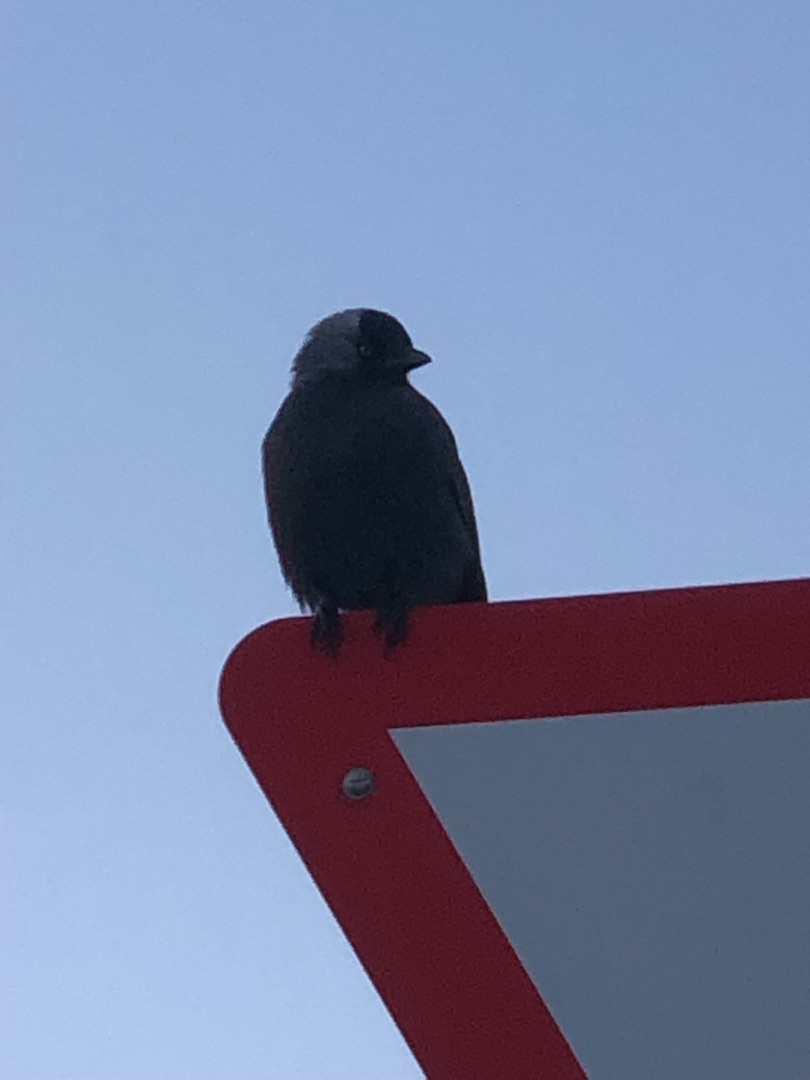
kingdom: Animalia
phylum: Chordata
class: Aves
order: Passeriformes
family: Corvidae
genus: Coloeus
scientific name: Coloeus monedula
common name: Allike
